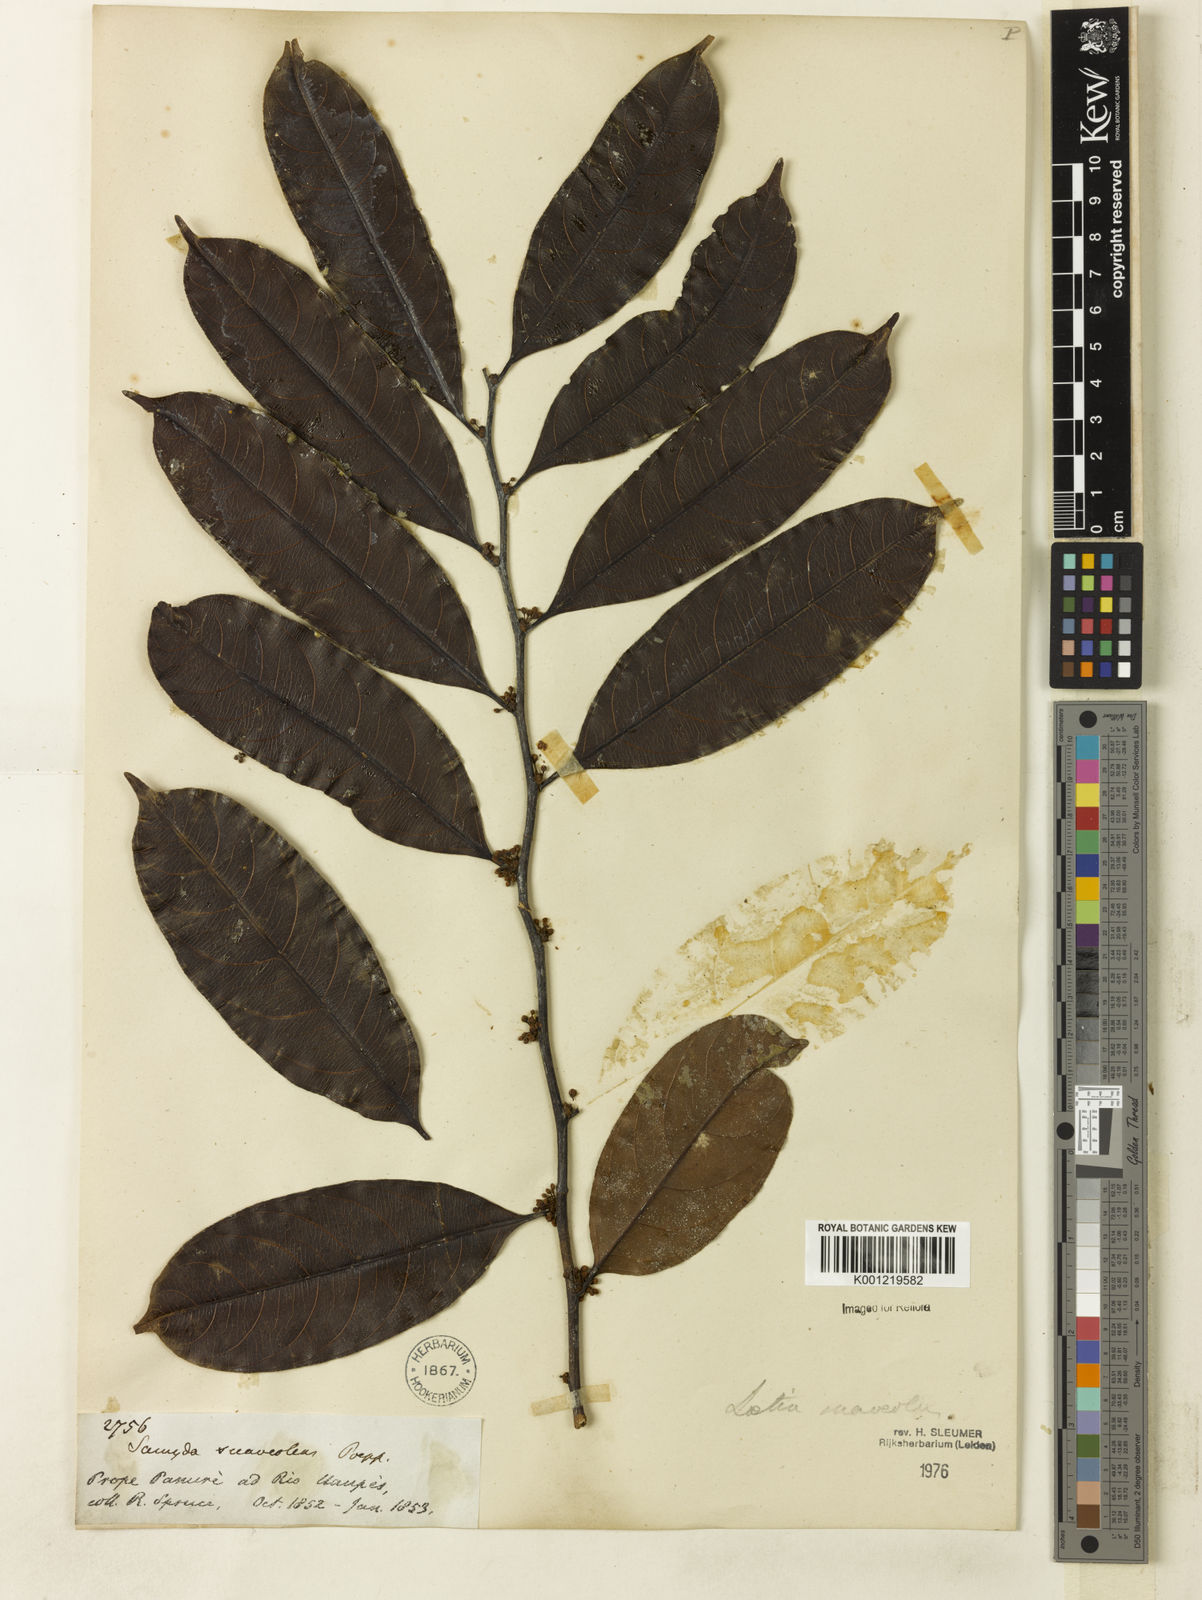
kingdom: Plantae
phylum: Tracheophyta
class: Magnoliopsida
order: Malpighiales
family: Salicaceae
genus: Casearia
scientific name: Casearia suaveolens
